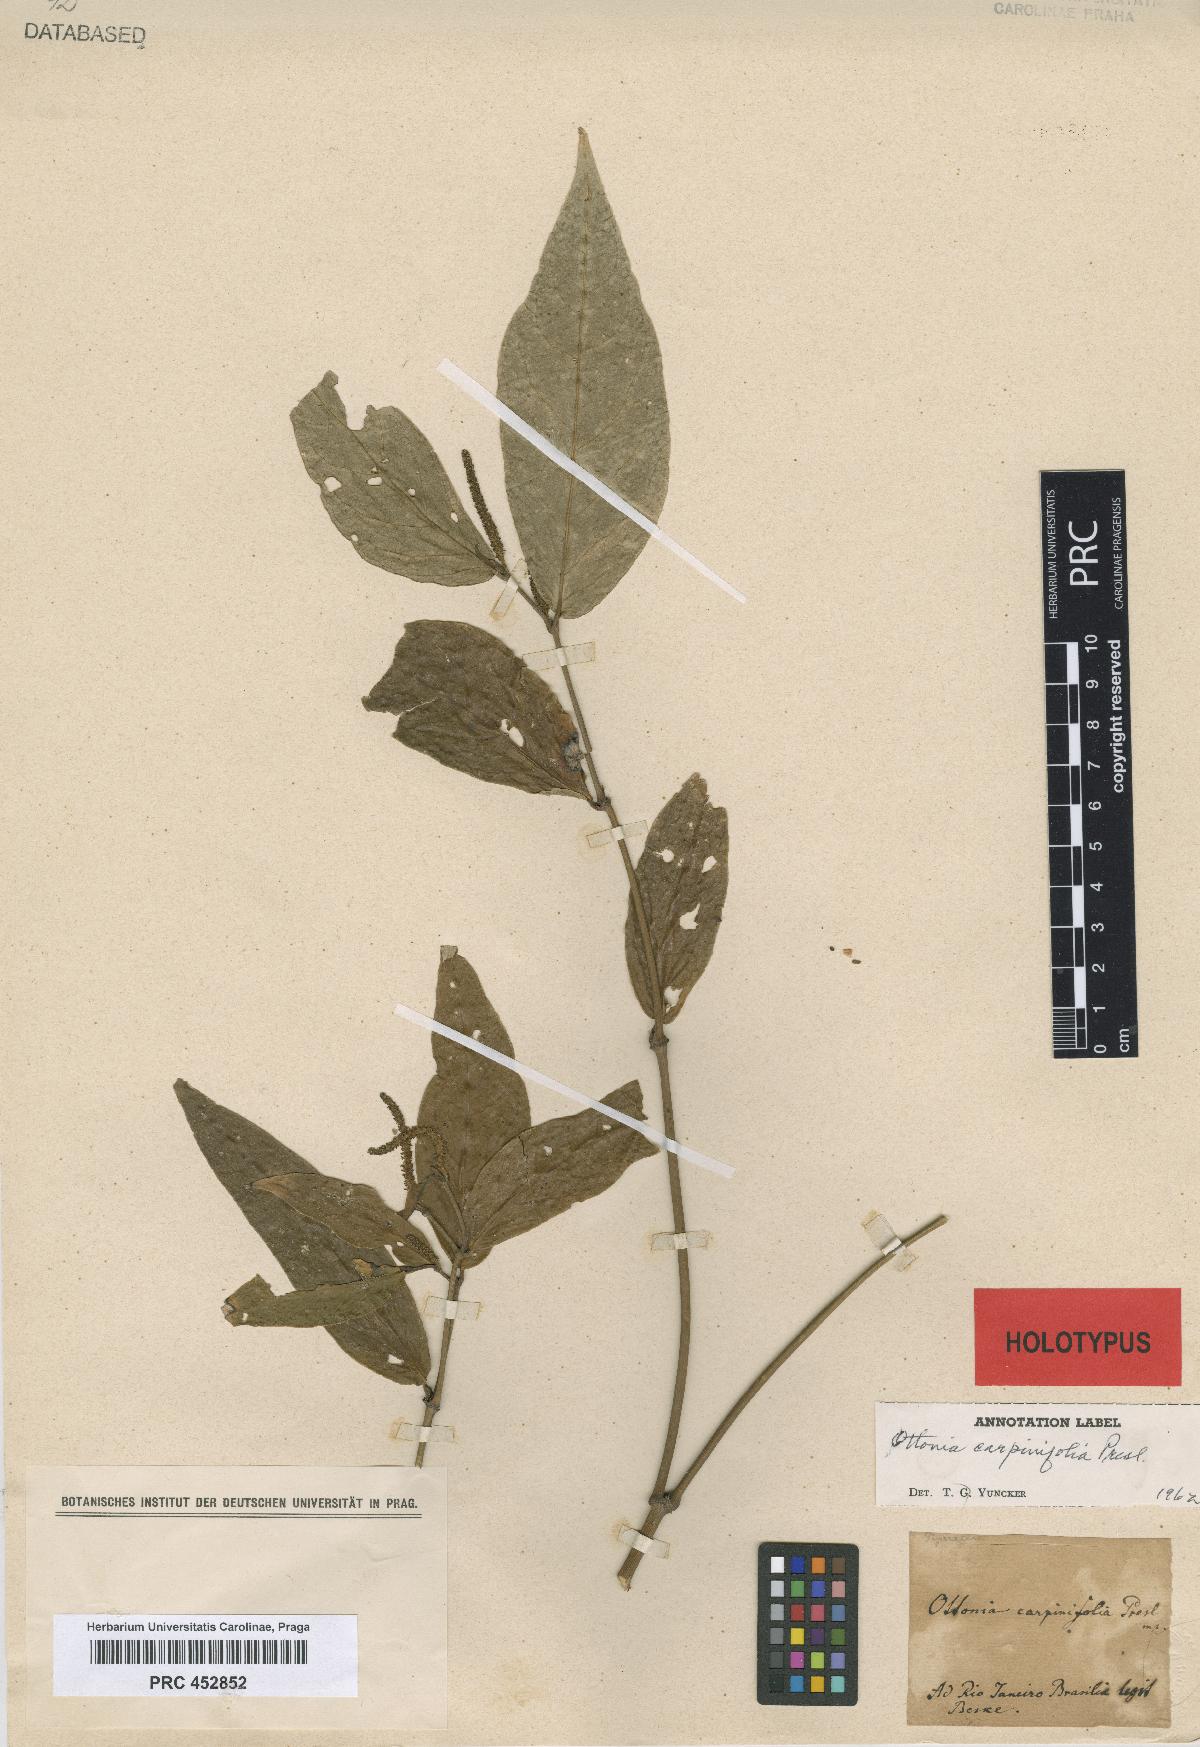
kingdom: Plantae
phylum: Tracheophyta
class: Magnoliopsida
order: Piperales
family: Piperaceae
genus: Piper
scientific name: Piper carpinifolium
